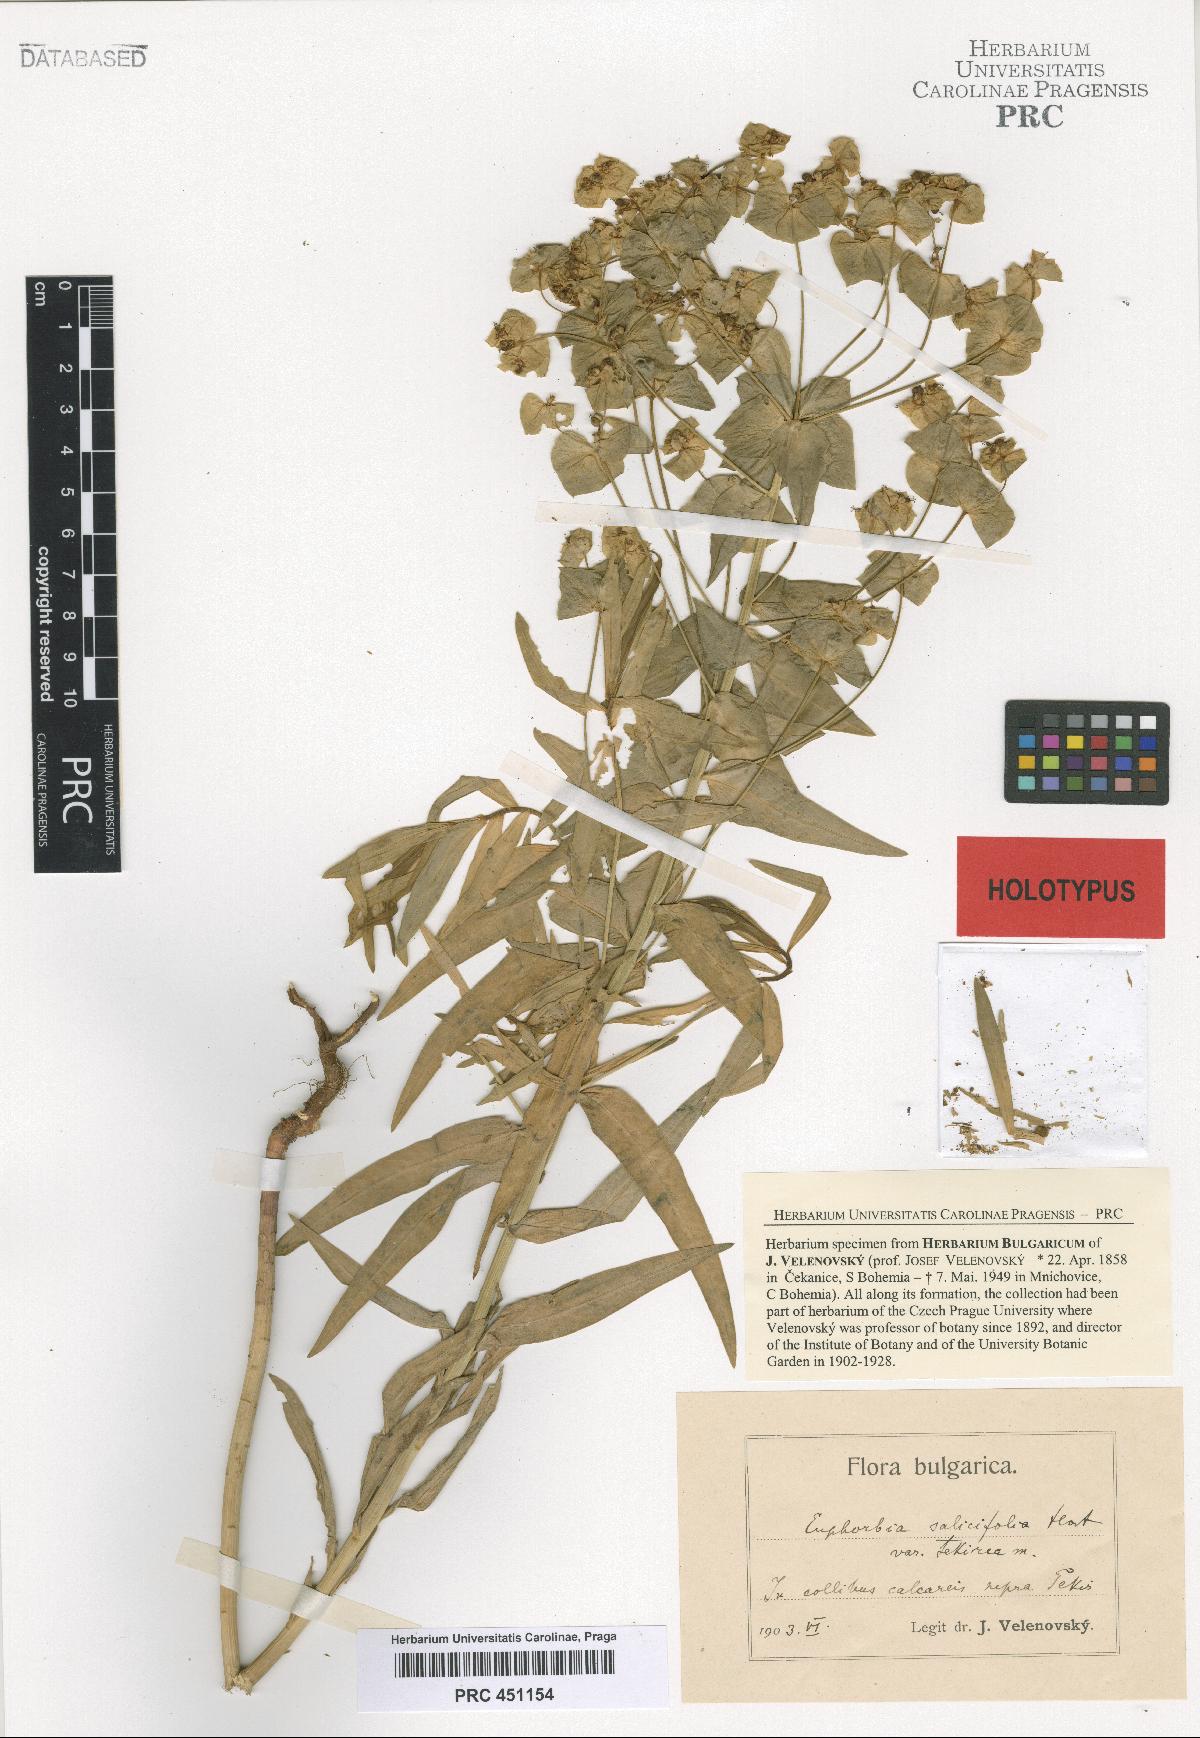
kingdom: Plantae
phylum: Tracheophyta
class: Magnoliopsida
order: Malpighiales
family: Euphorbiaceae
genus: Euphorbia
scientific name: Euphorbia salicifolia
